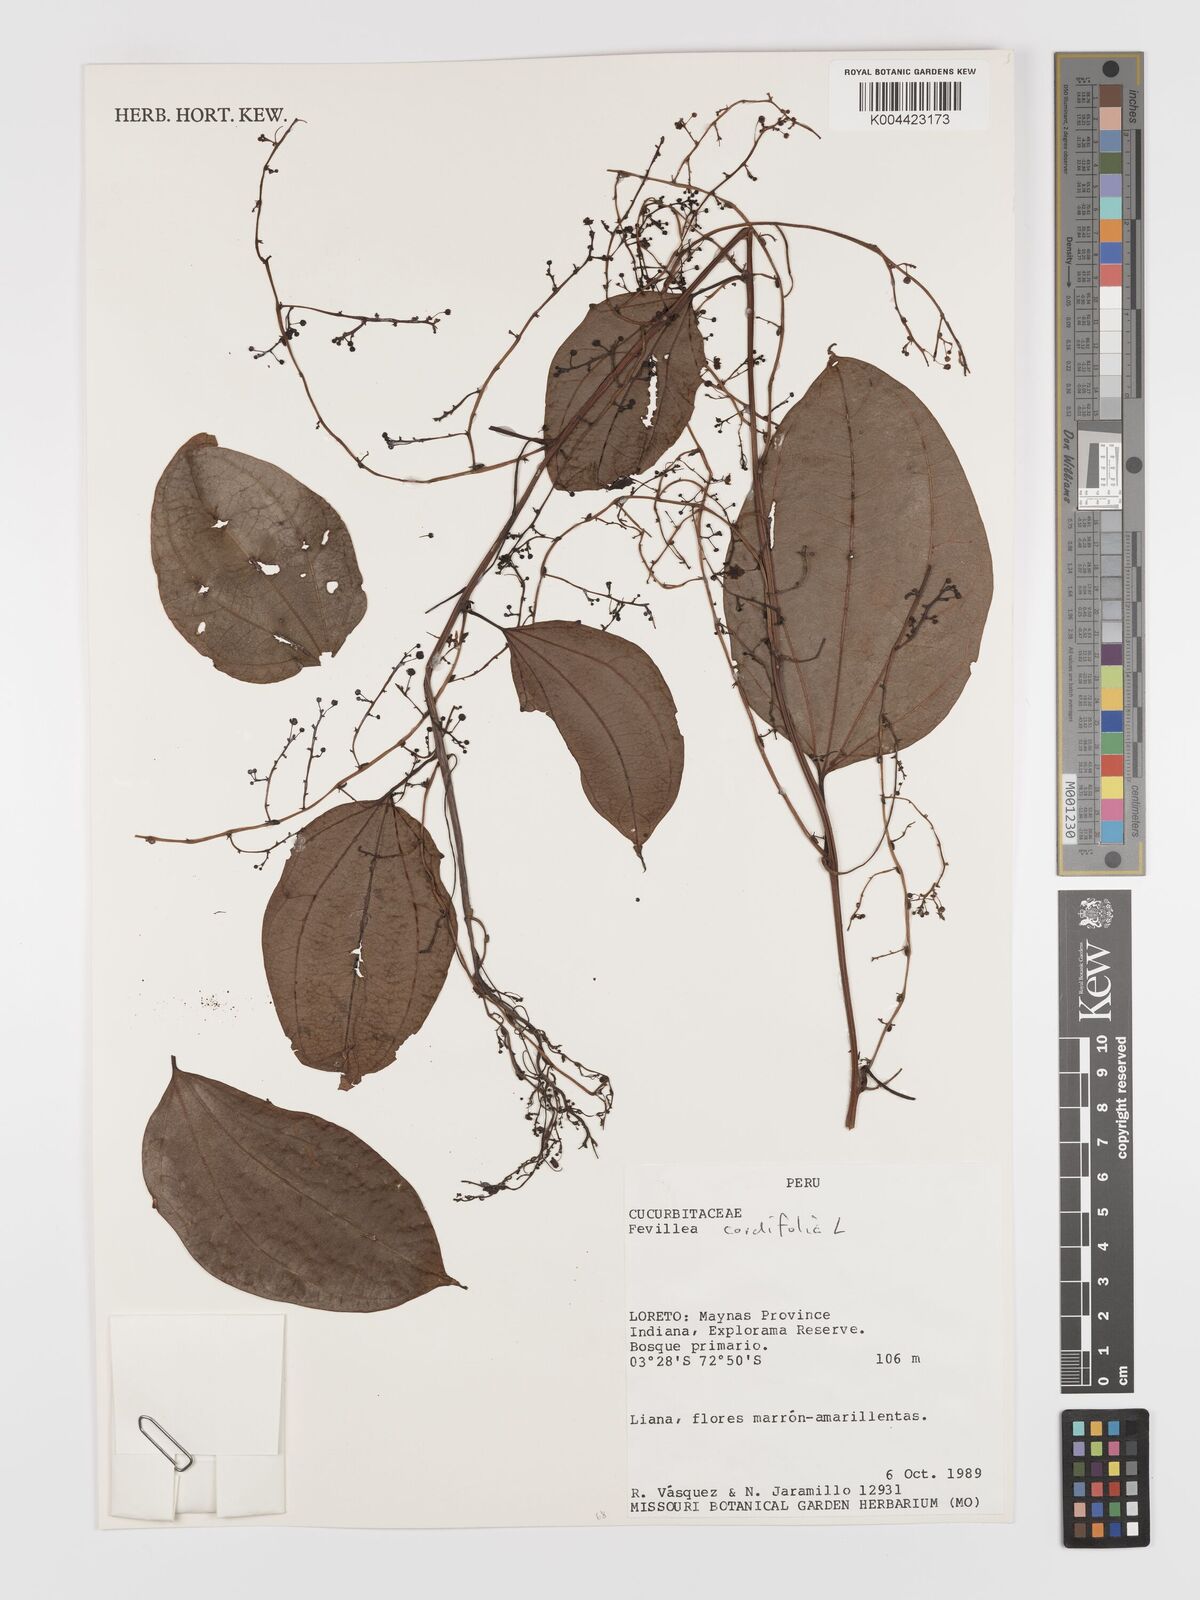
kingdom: Plantae
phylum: Tracheophyta
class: Magnoliopsida
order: Cucurbitales
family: Cucurbitaceae
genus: Fevillea
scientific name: Fevillea
